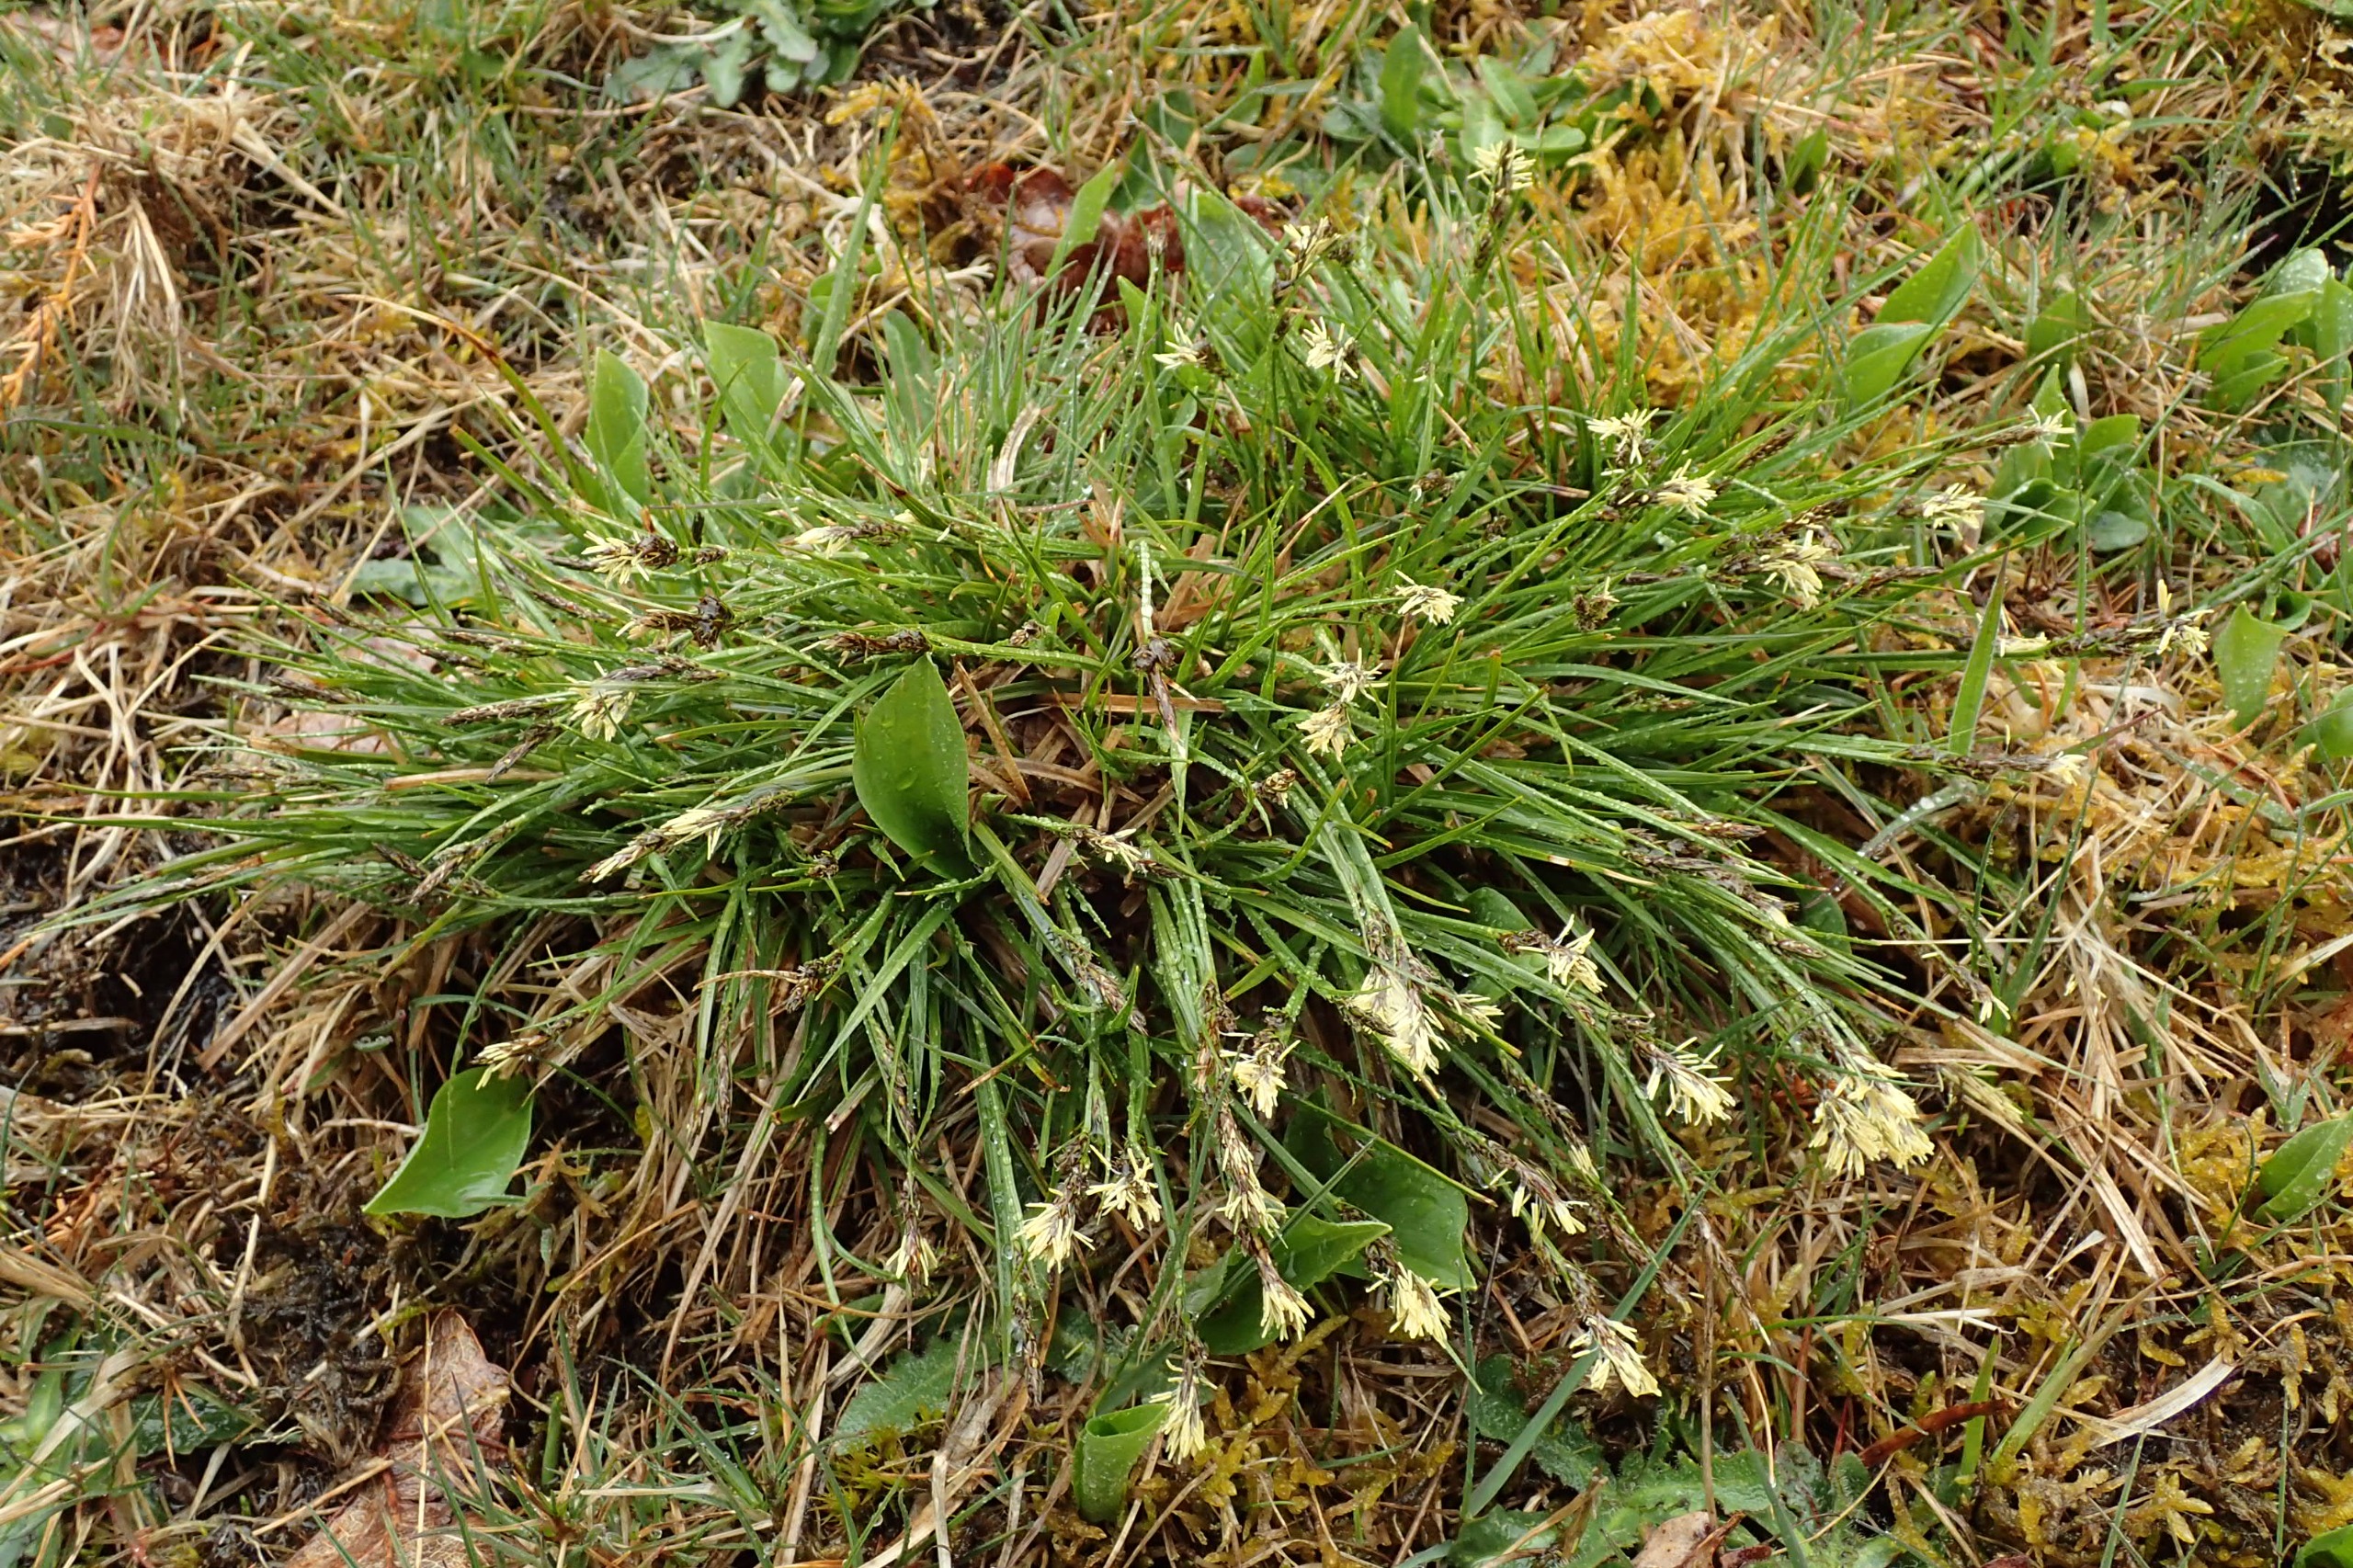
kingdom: Plantae
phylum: Tracheophyta
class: Liliopsida
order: Poales
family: Cyperaceae
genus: Carex
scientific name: Carex pilulifera
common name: Pille-star
